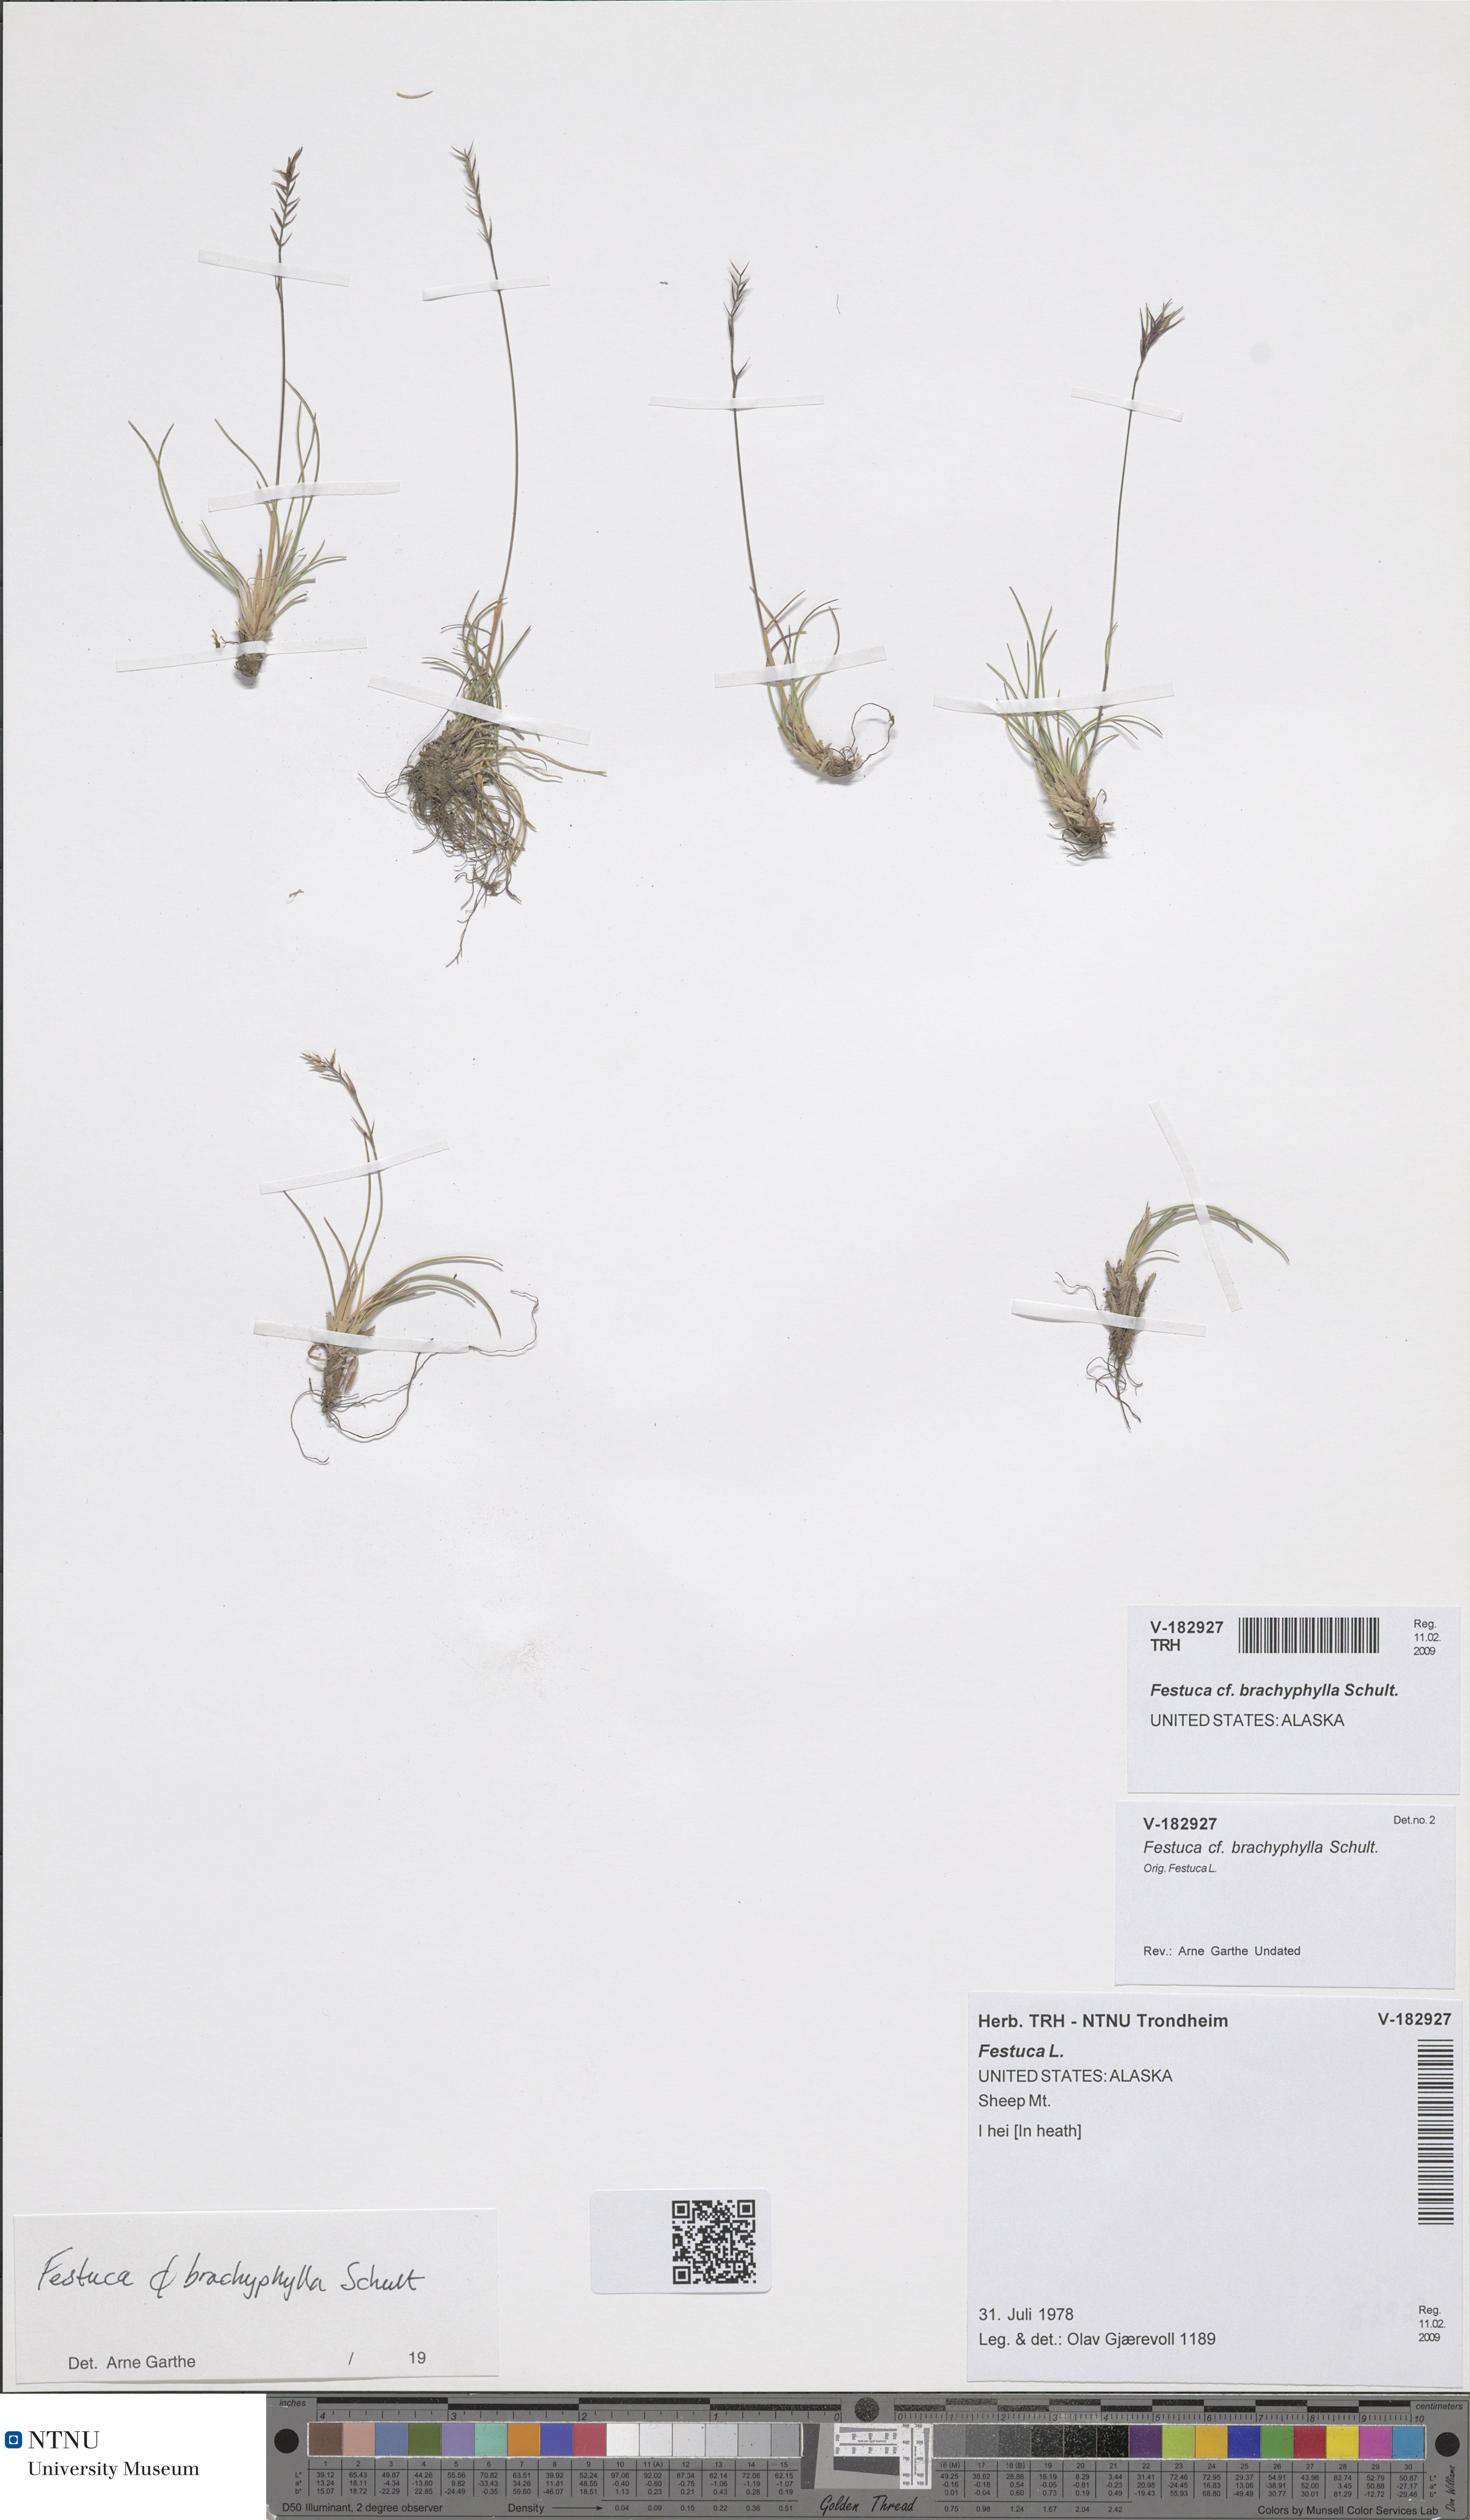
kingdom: Plantae
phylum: Tracheophyta
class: Liliopsida
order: Poales
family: Poaceae
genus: Festuca
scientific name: Festuca brachyphylla
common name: Alpine fescue
